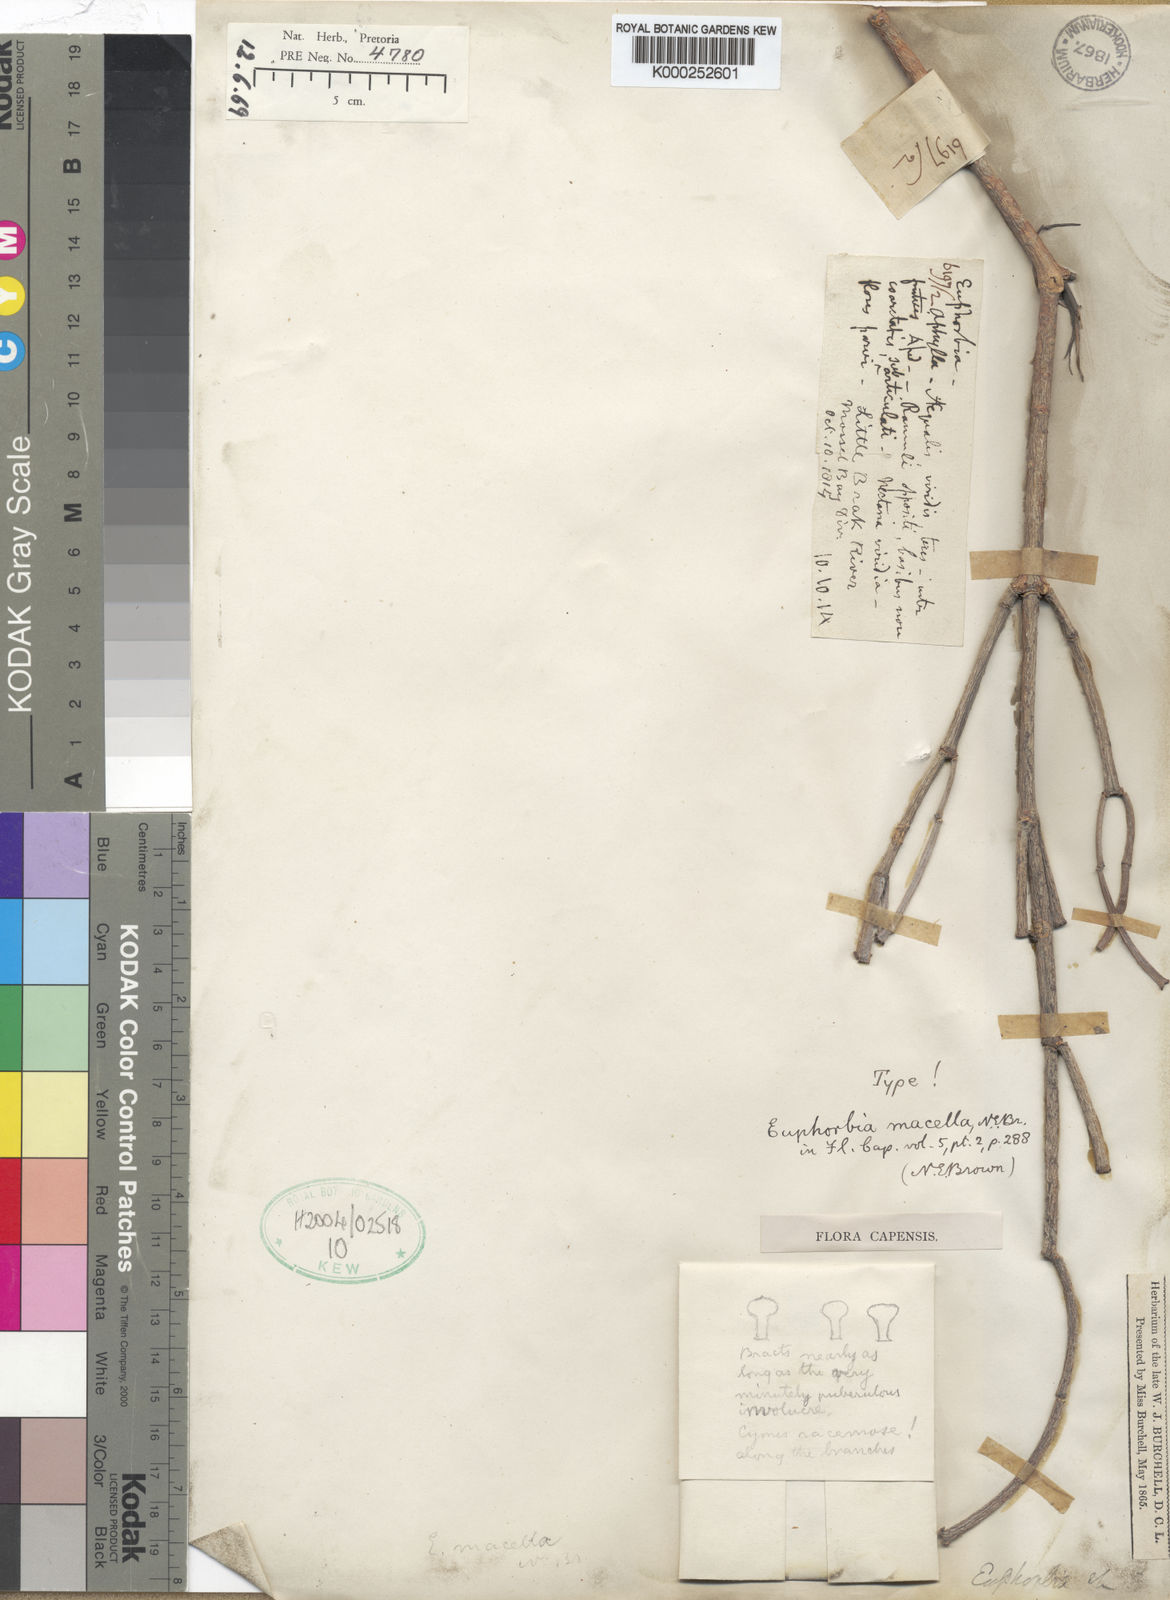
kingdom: Plantae
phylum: Tracheophyta
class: Magnoliopsida
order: Malpighiales
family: Euphorbiaceae
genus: Euphorbia
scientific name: Euphorbia burmanni
